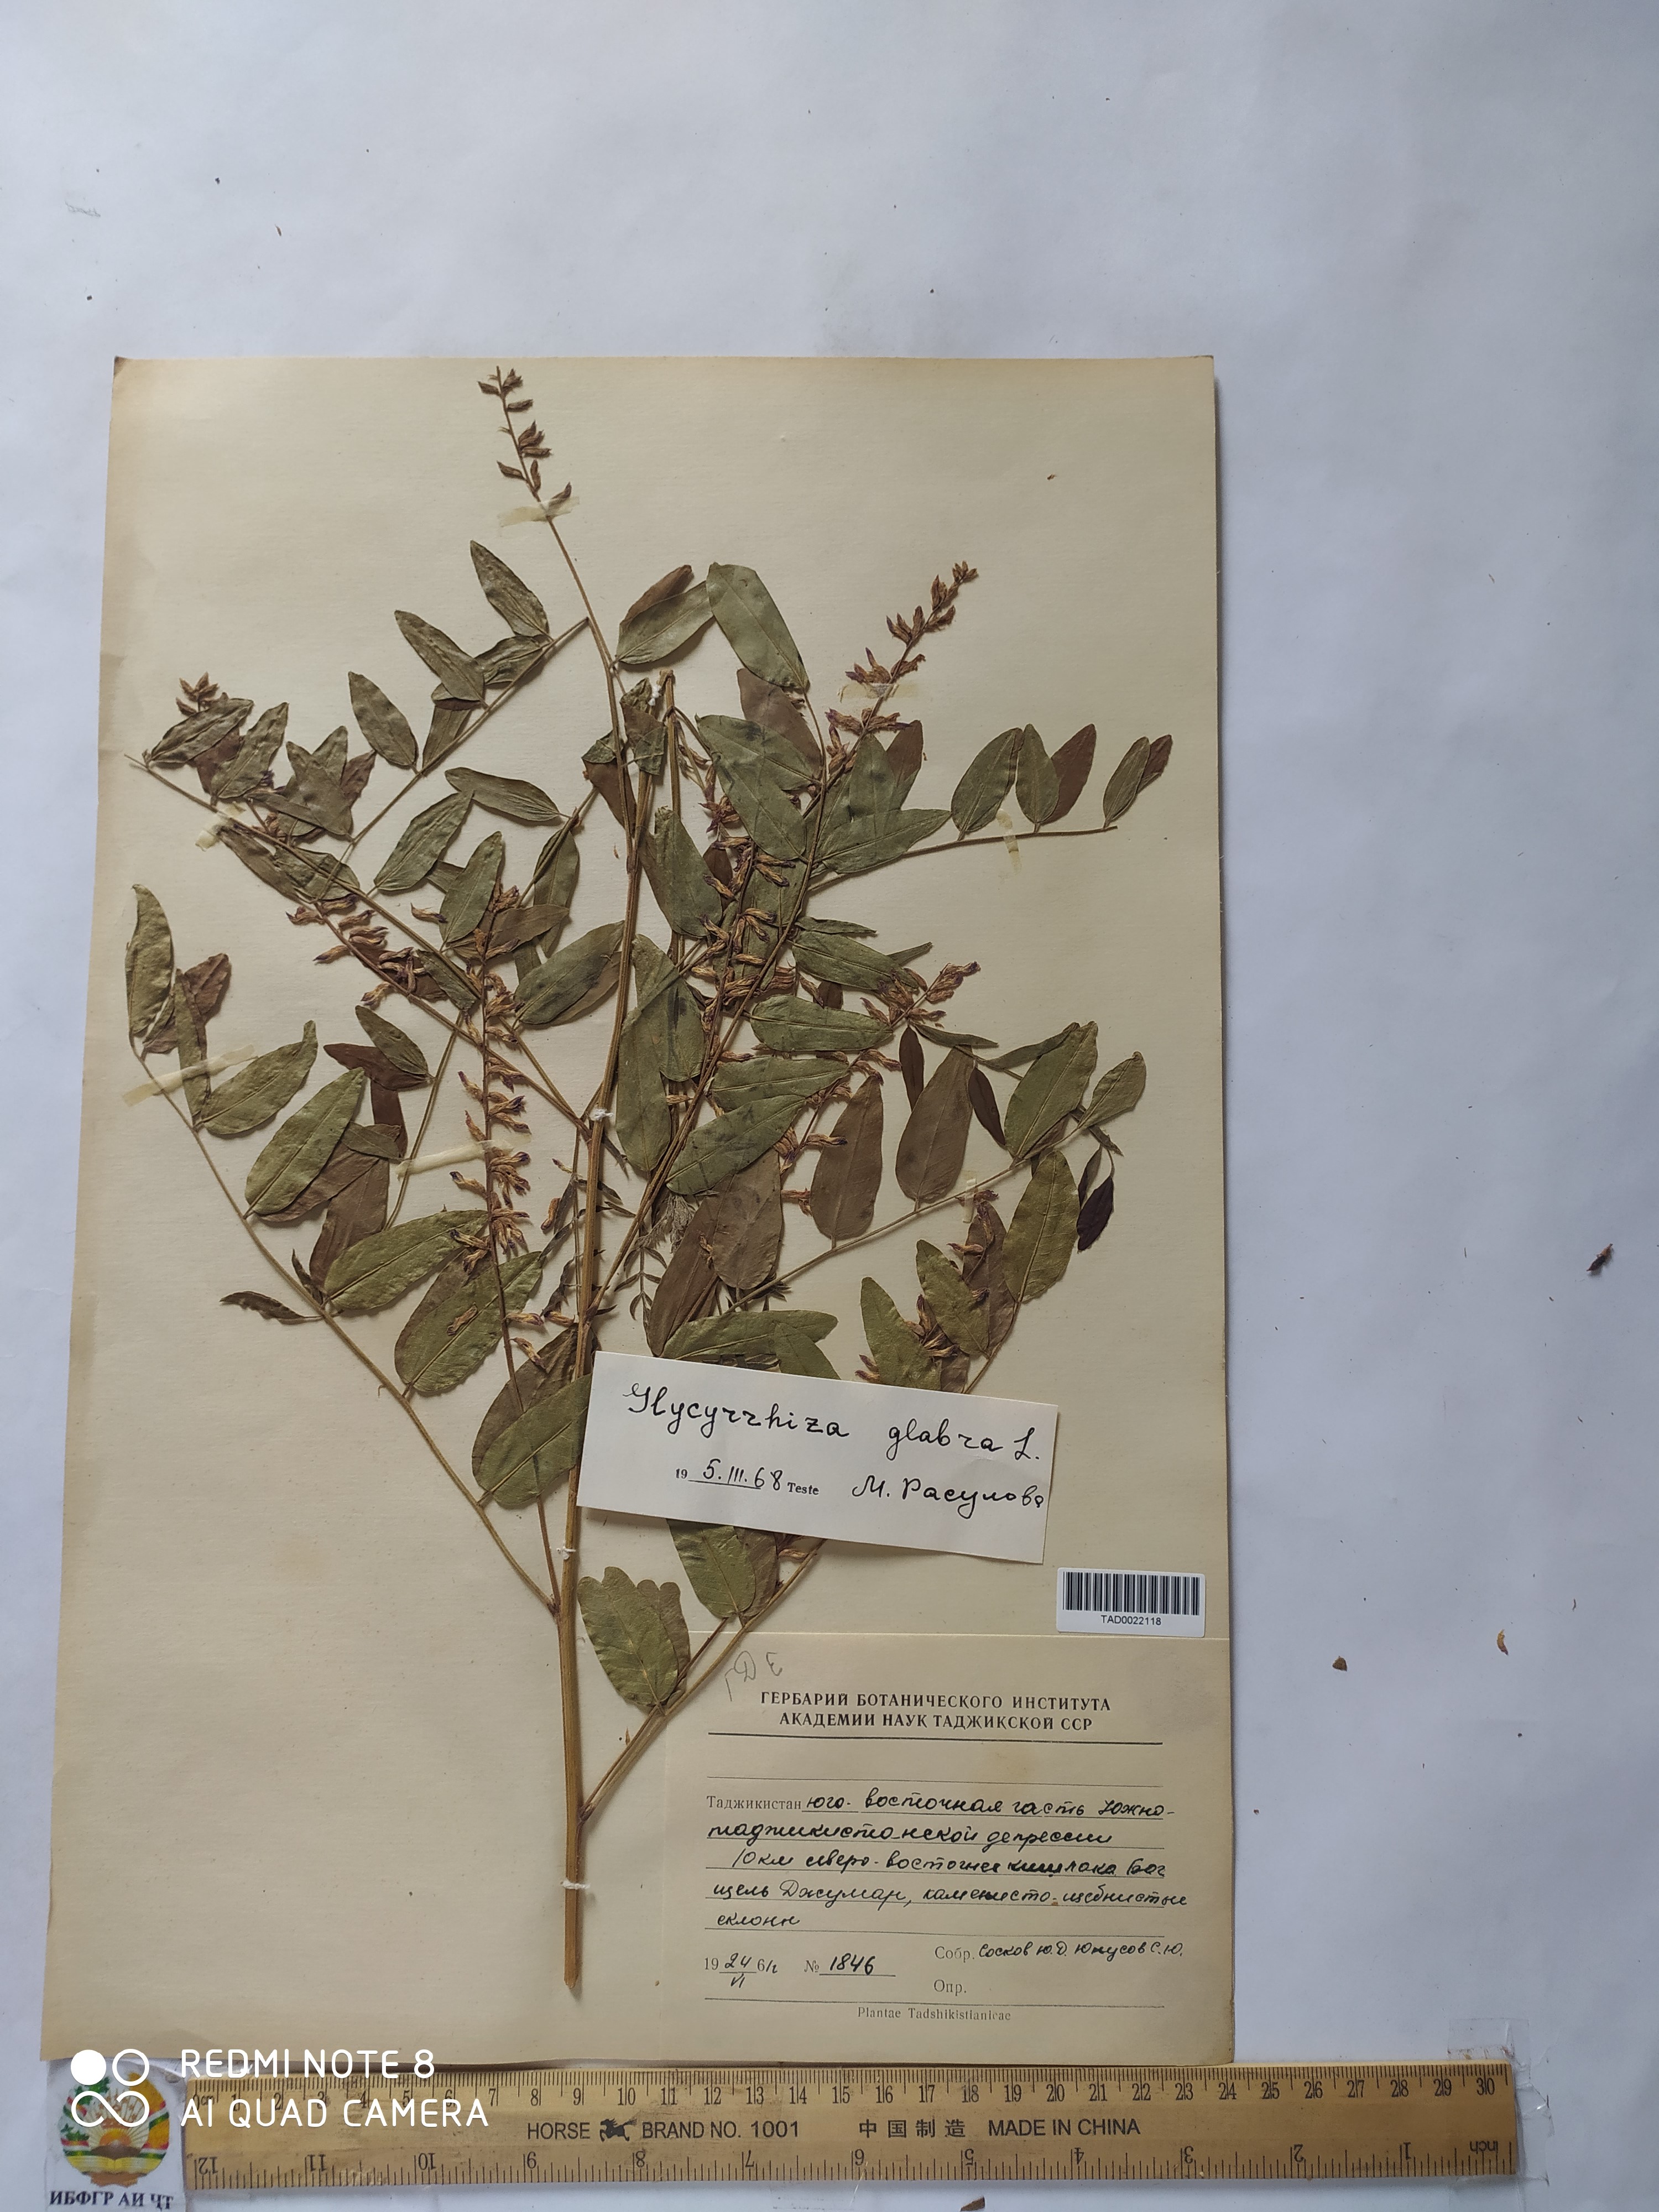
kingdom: Plantae
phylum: Tracheophyta
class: Magnoliopsida
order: Fabales
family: Fabaceae
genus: Glycyrrhiza
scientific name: Glycyrrhiza glabra
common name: Liquorice
